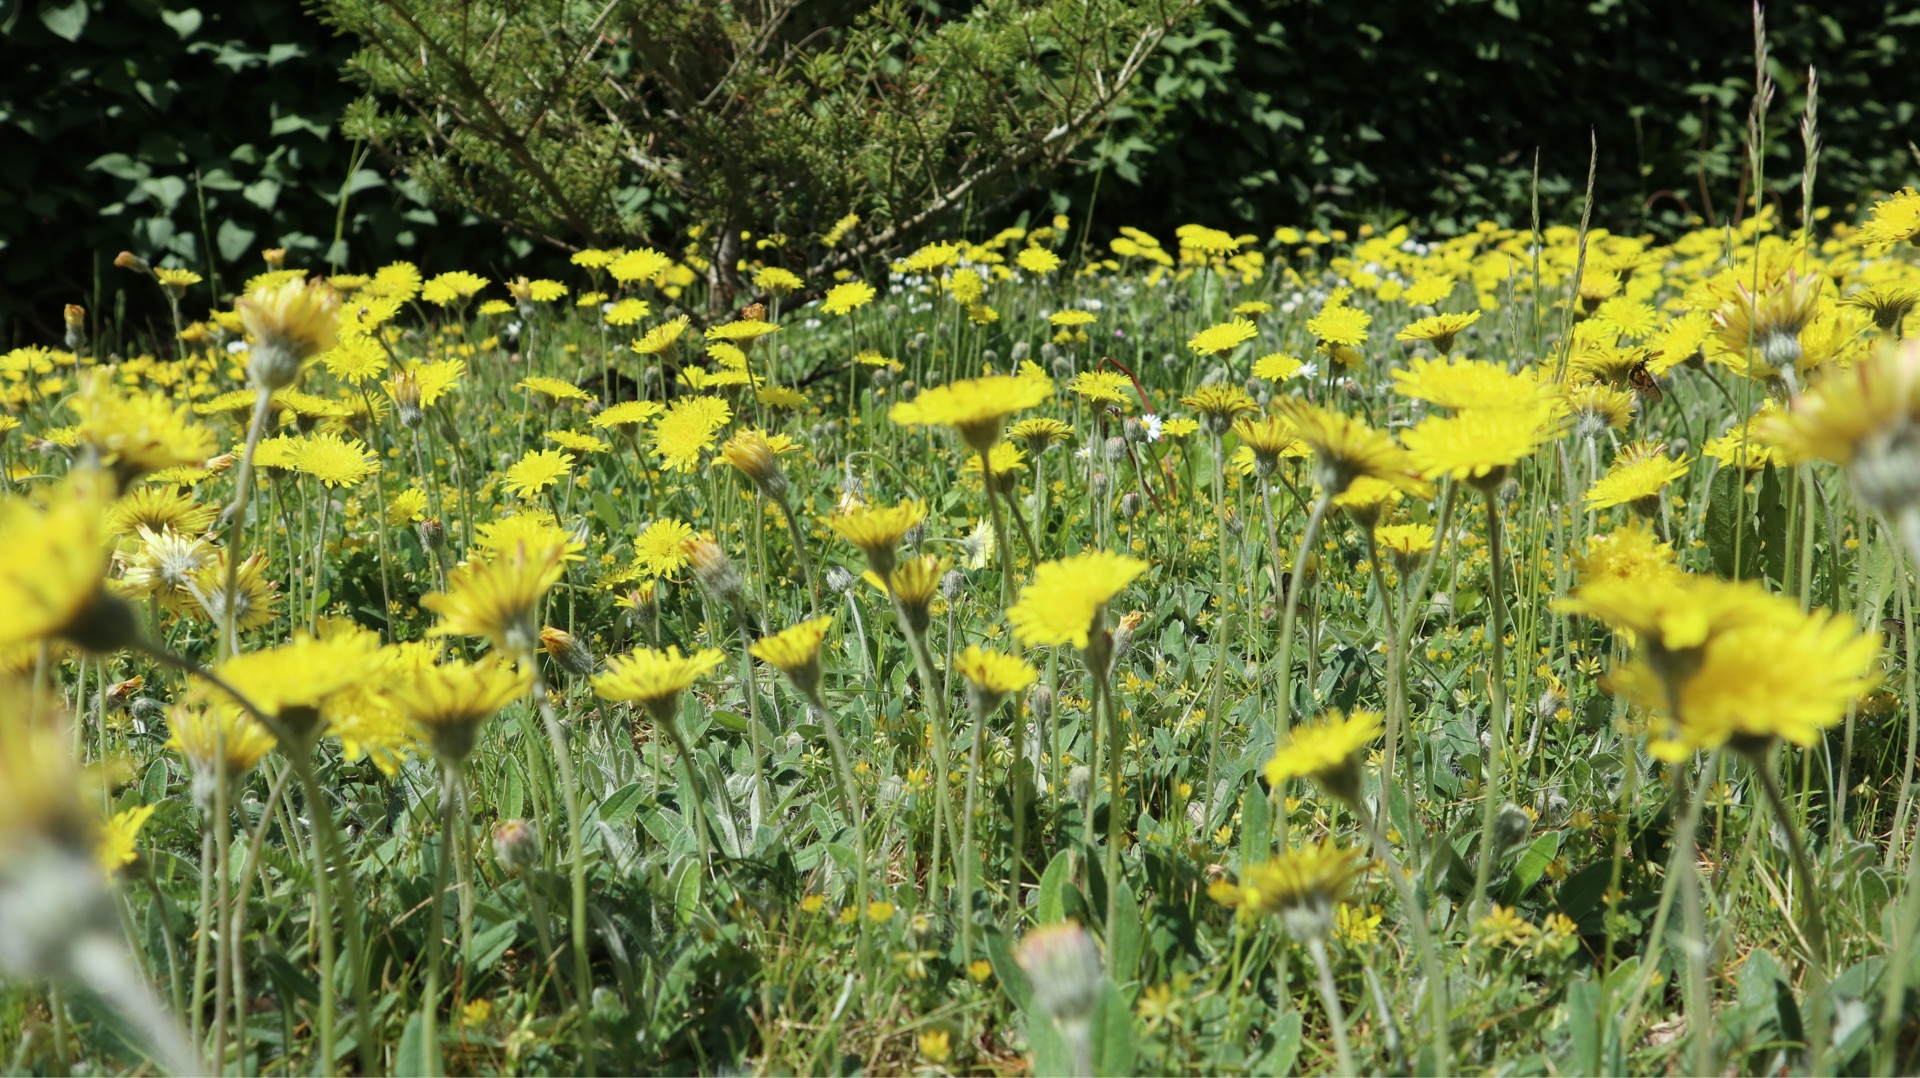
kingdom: Plantae
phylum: Tracheophyta
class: Magnoliopsida
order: Asterales
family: Asteraceae
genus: Pilosella
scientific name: Pilosella officinarum
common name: Håret høgeurt
